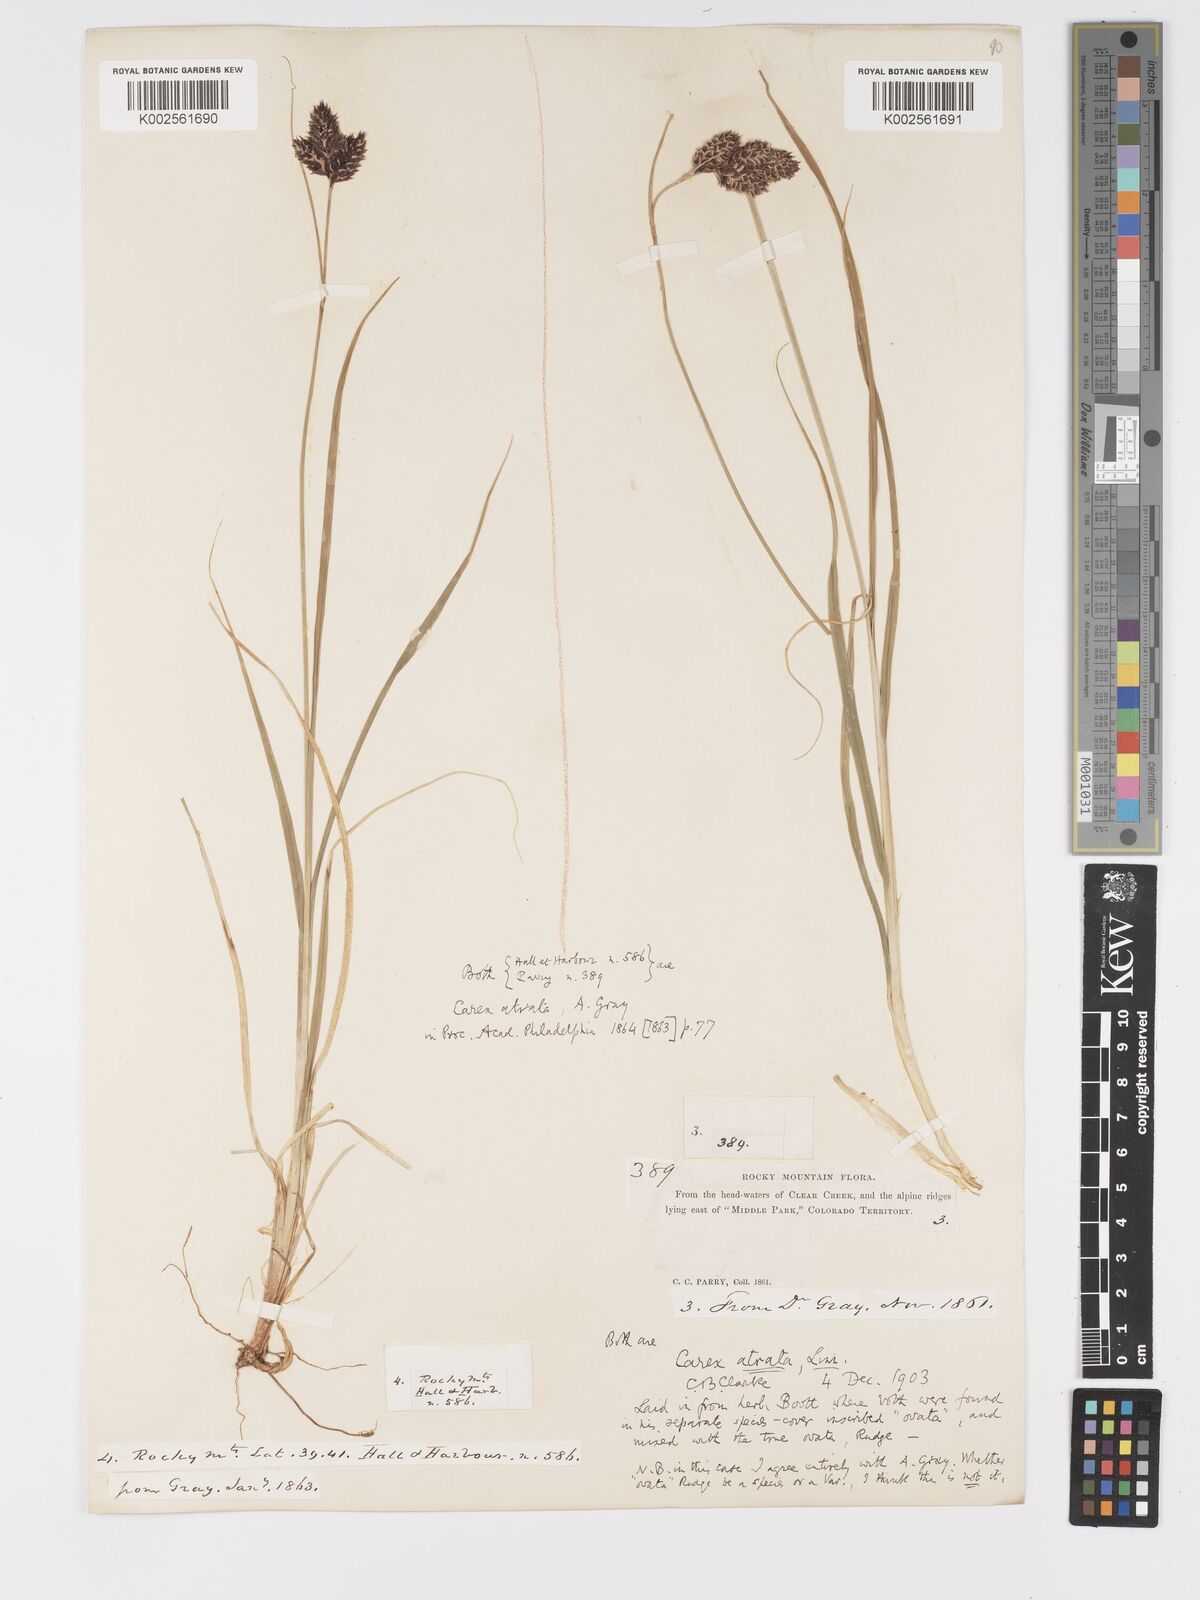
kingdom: Plantae
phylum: Tracheophyta
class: Liliopsida
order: Poales
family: Cyperaceae
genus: Carex
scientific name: Carex chalciolepis
